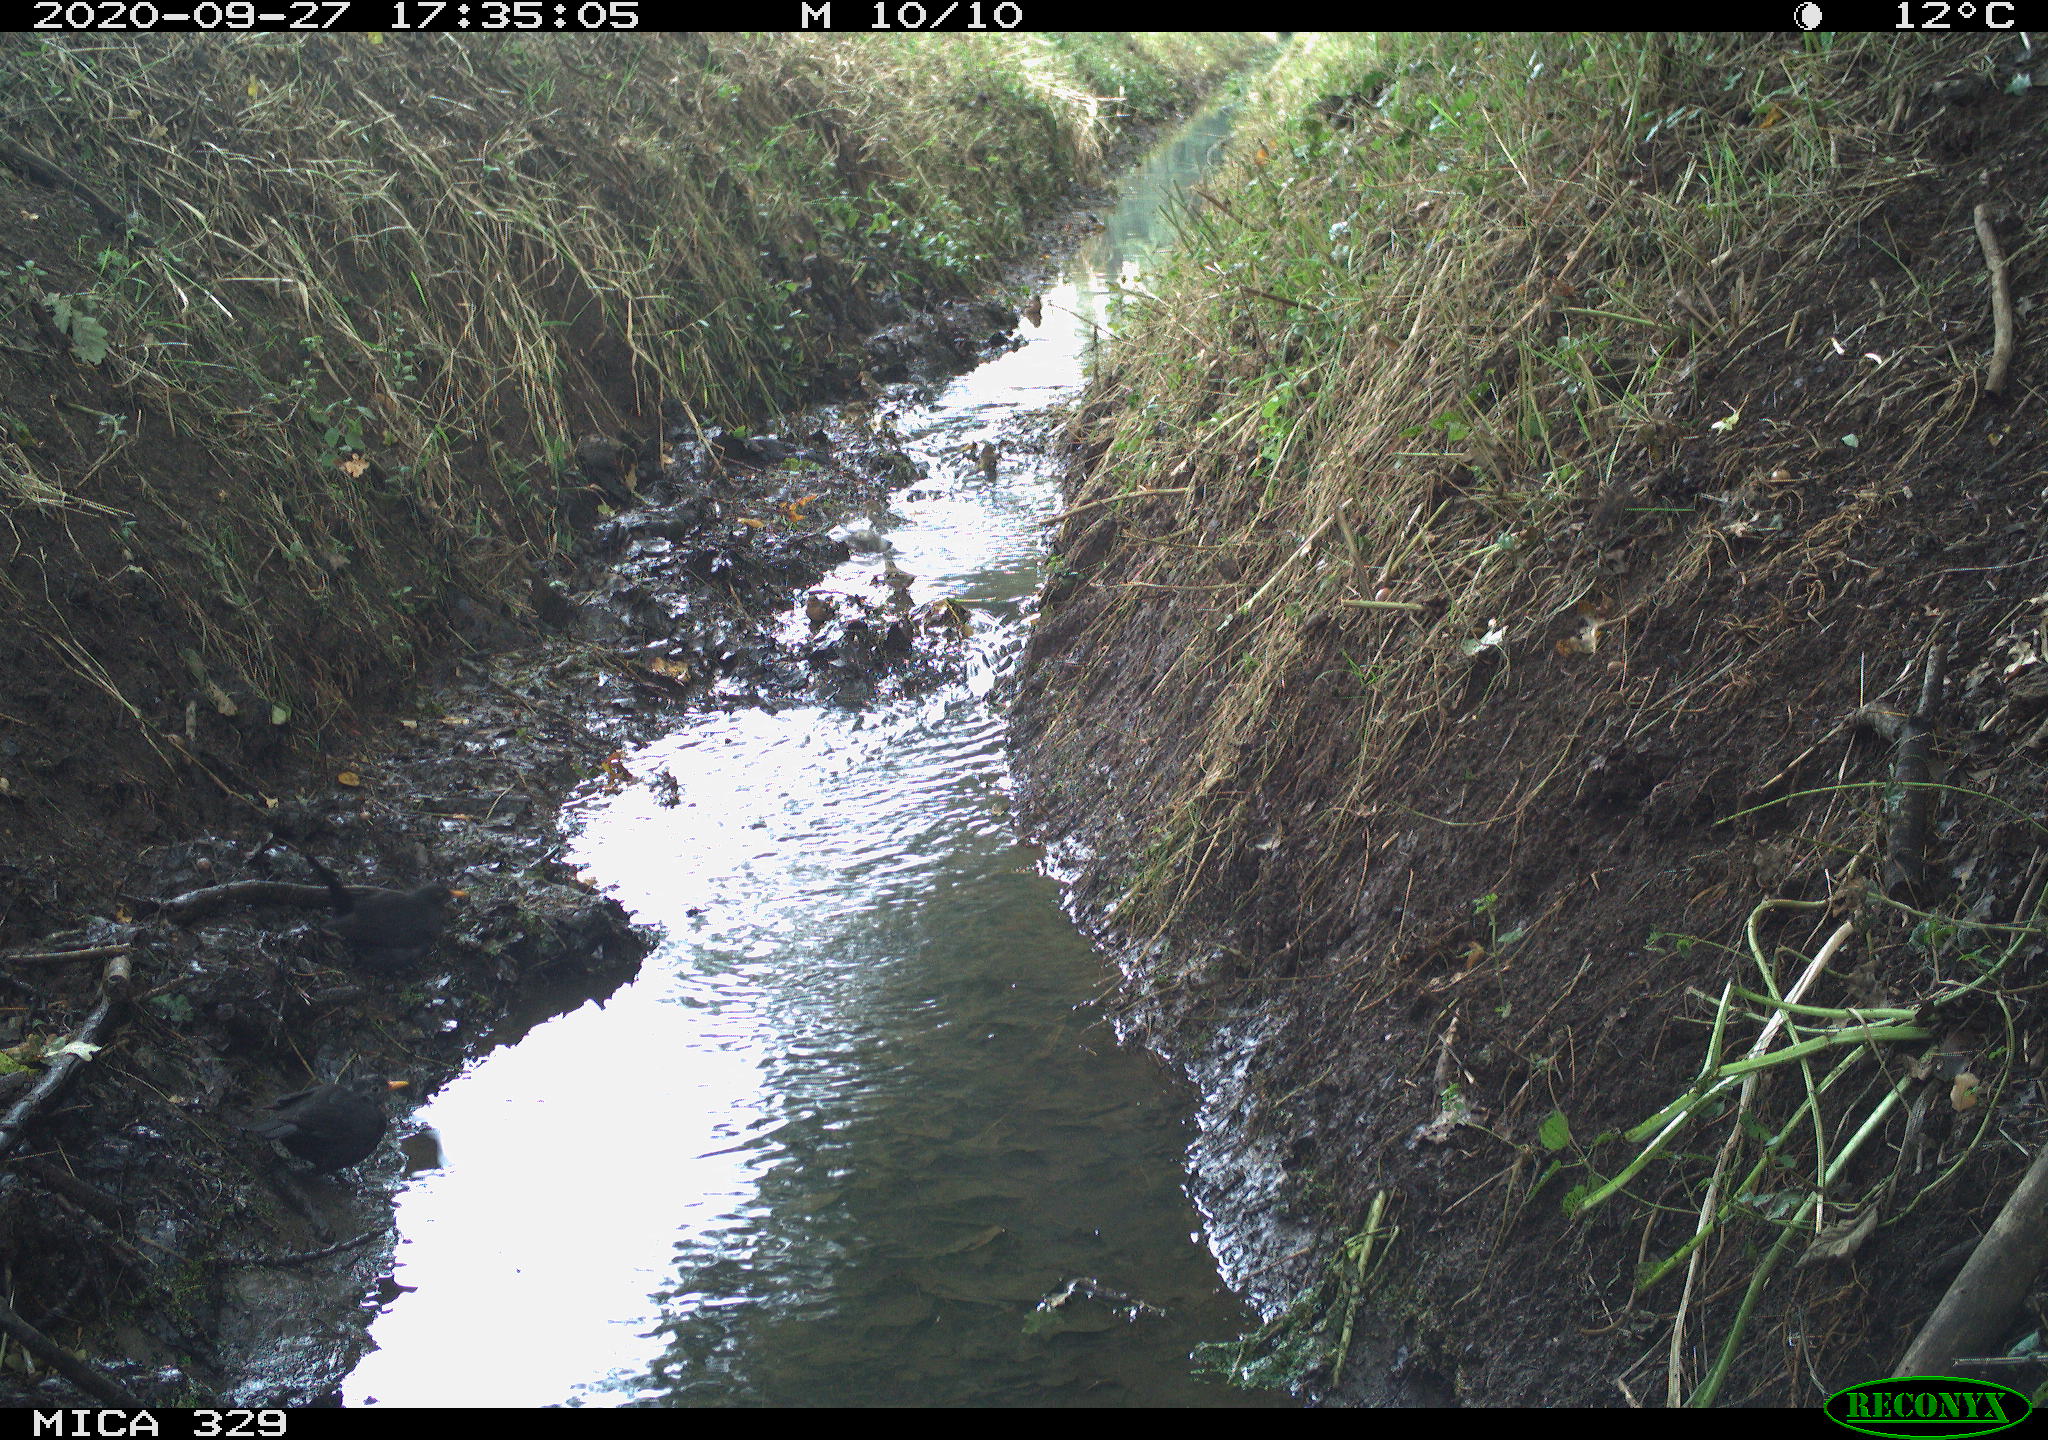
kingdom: Animalia
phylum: Chordata
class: Aves
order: Passeriformes
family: Turdidae
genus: Turdus
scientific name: Turdus merula
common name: Common blackbird
